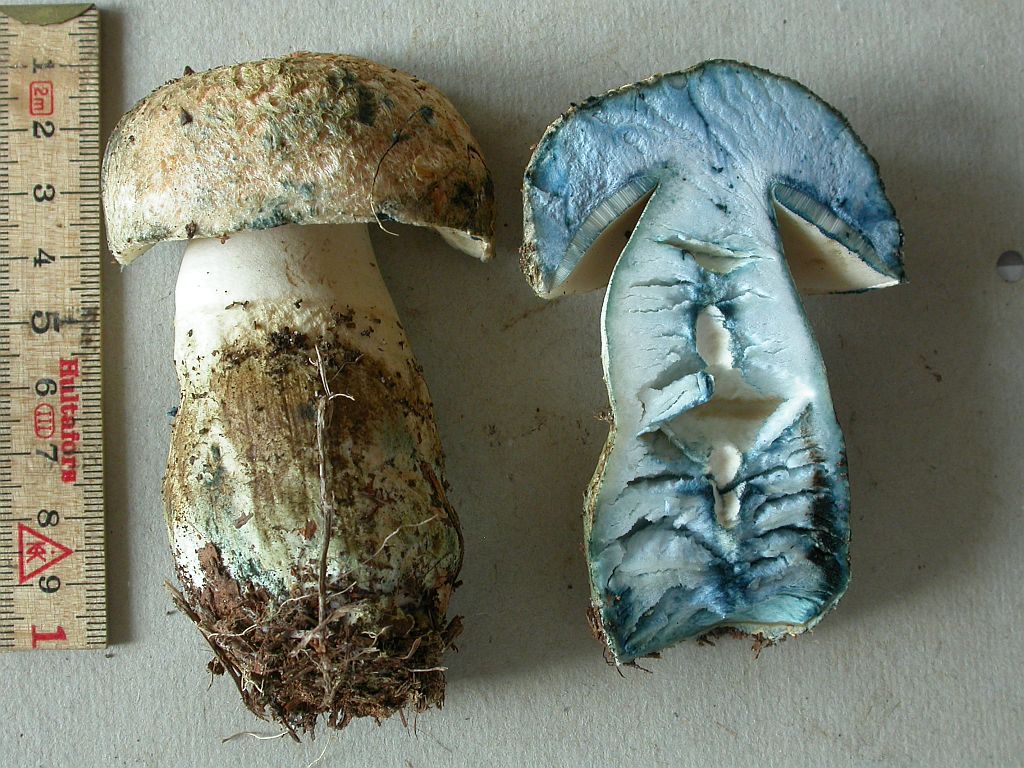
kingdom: Fungi
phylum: Basidiomycota
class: Agaricomycetes
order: Boletales
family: Gyroporaceae
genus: Gyroporus
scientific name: Gyroporus cyanescens
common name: blånende kammerrørhat
